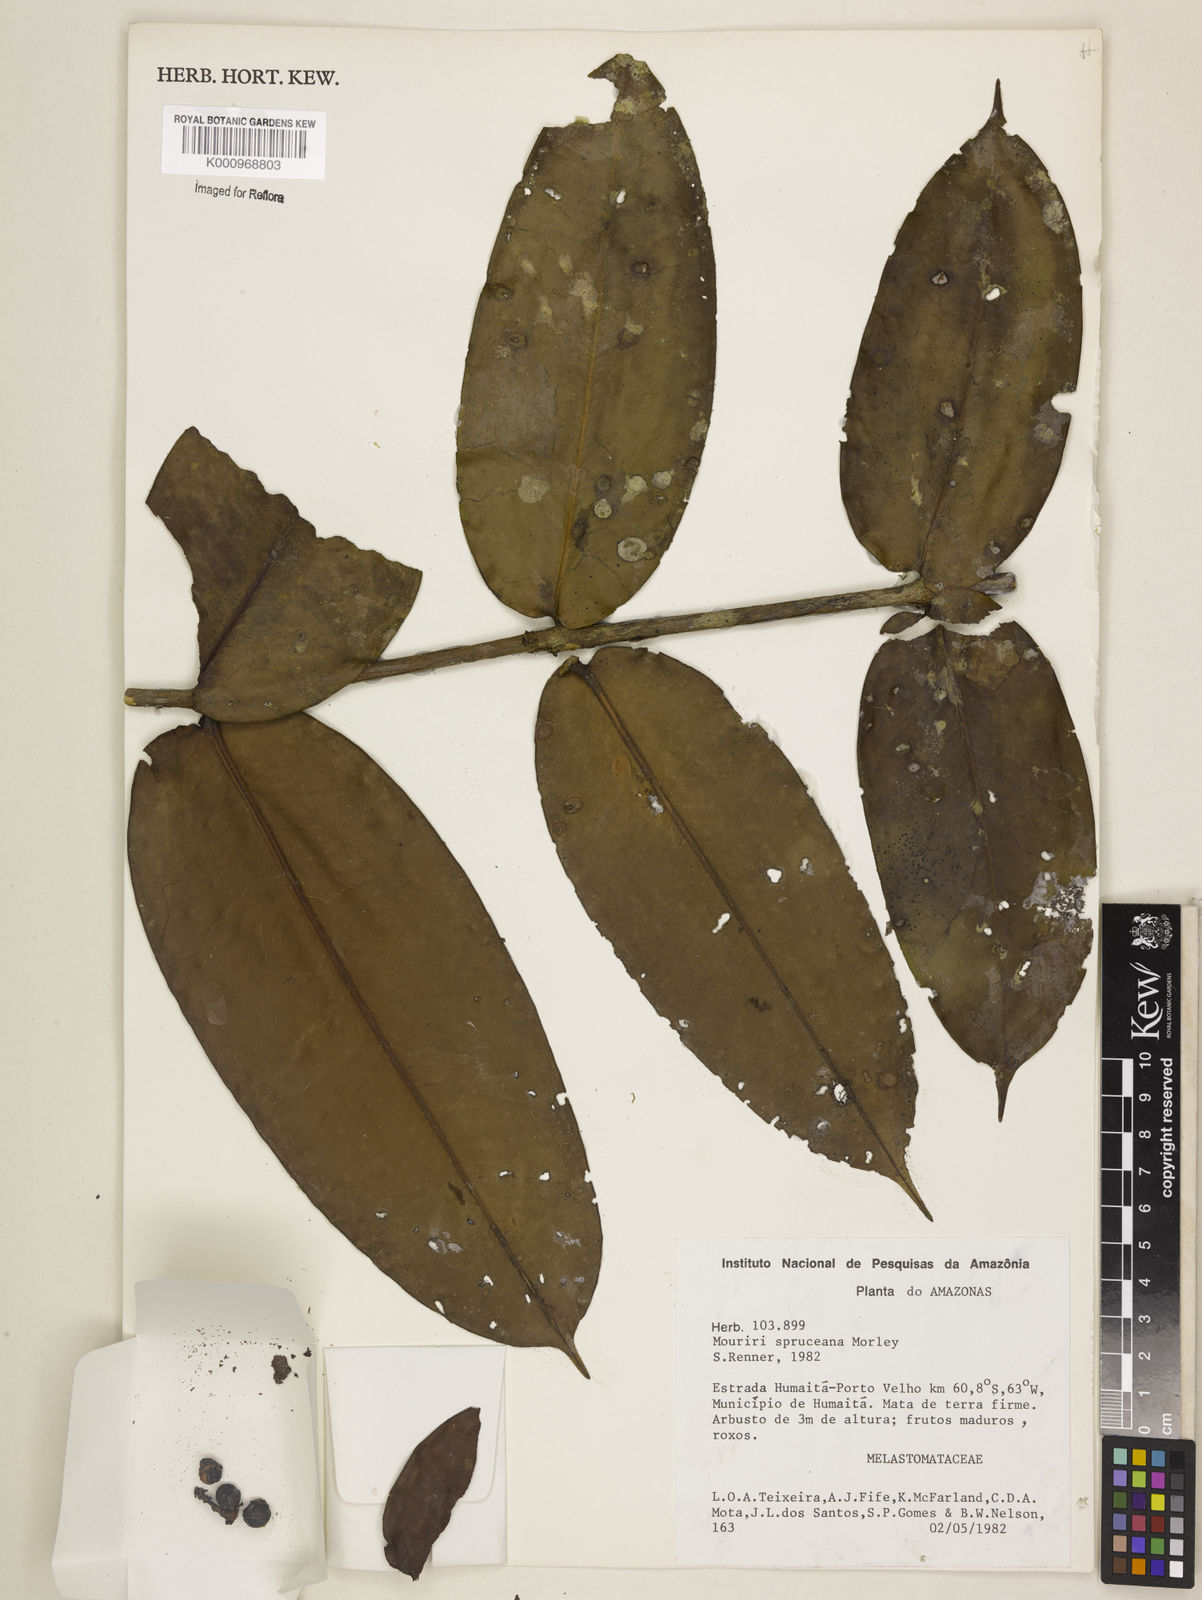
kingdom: Plantae
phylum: Tracheophyta
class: Magnoliopsida
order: Myrtales
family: Melastomataceae
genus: Mouriri
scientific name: Mouriri spruceana
